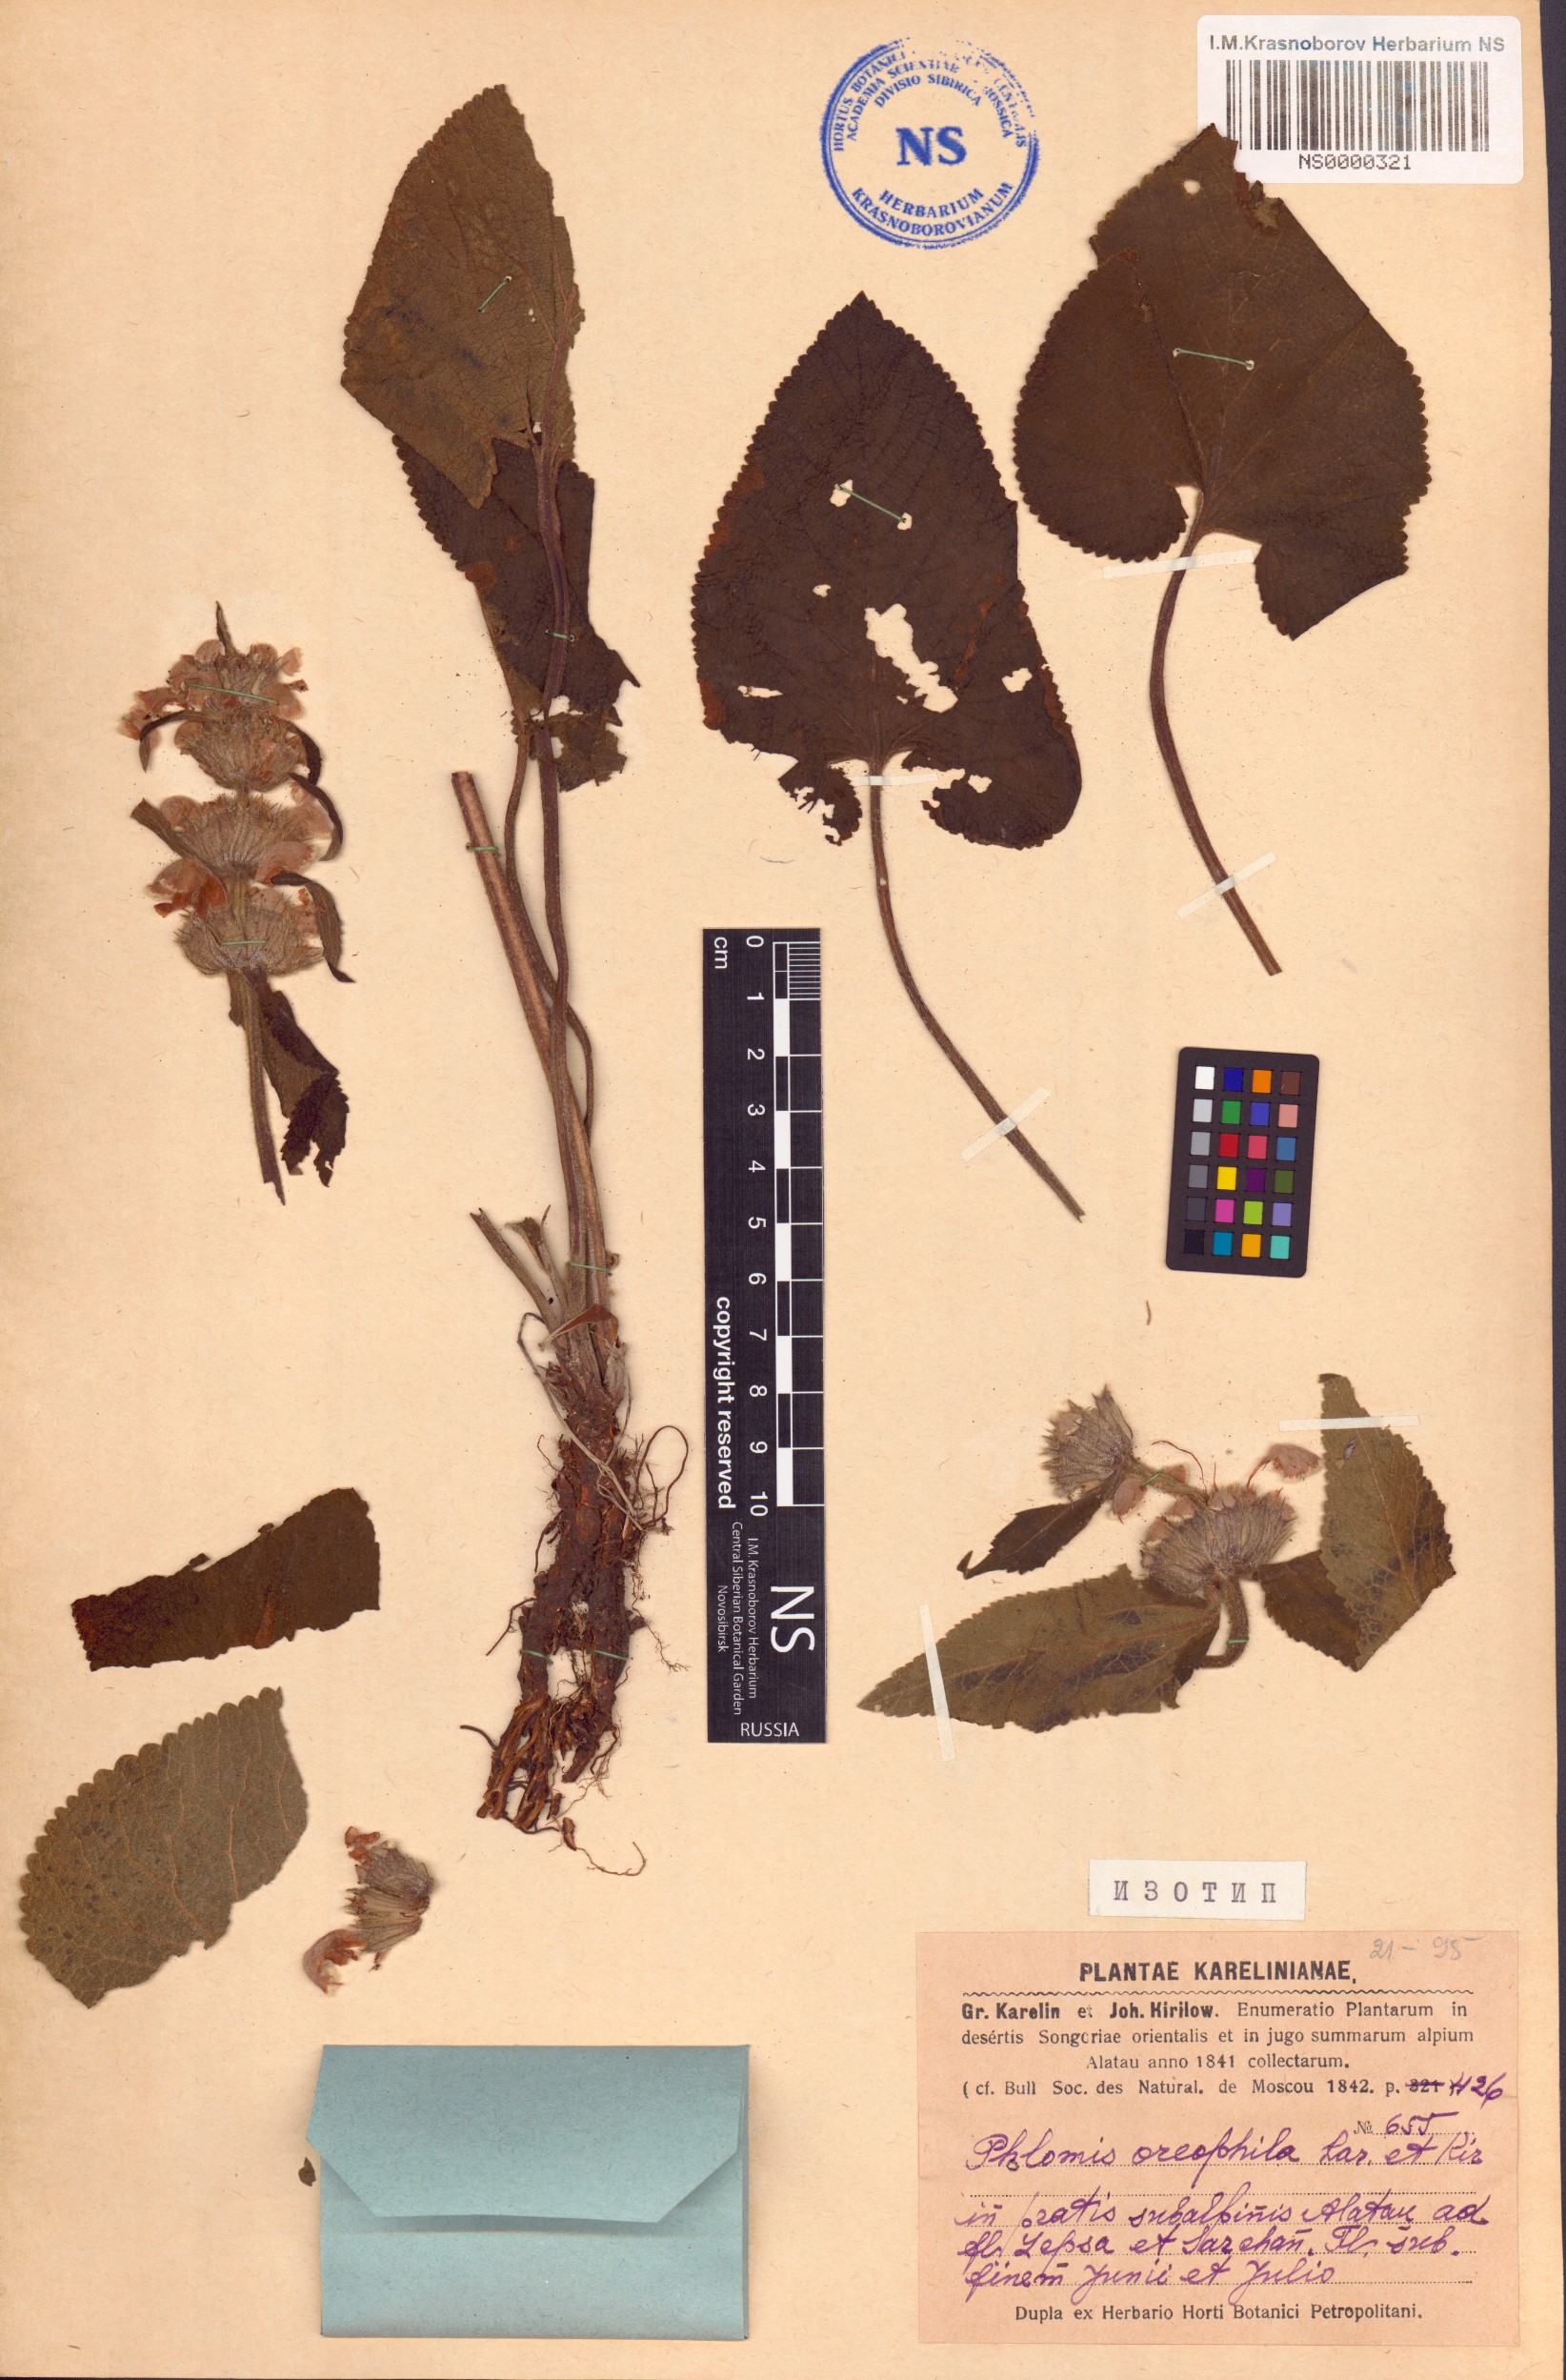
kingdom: Plantae
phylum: Tracheophyta
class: Magnoliopsida
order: Lamiales
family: Lamiaceae
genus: Phlomoides
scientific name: Phlomoides oreophila
